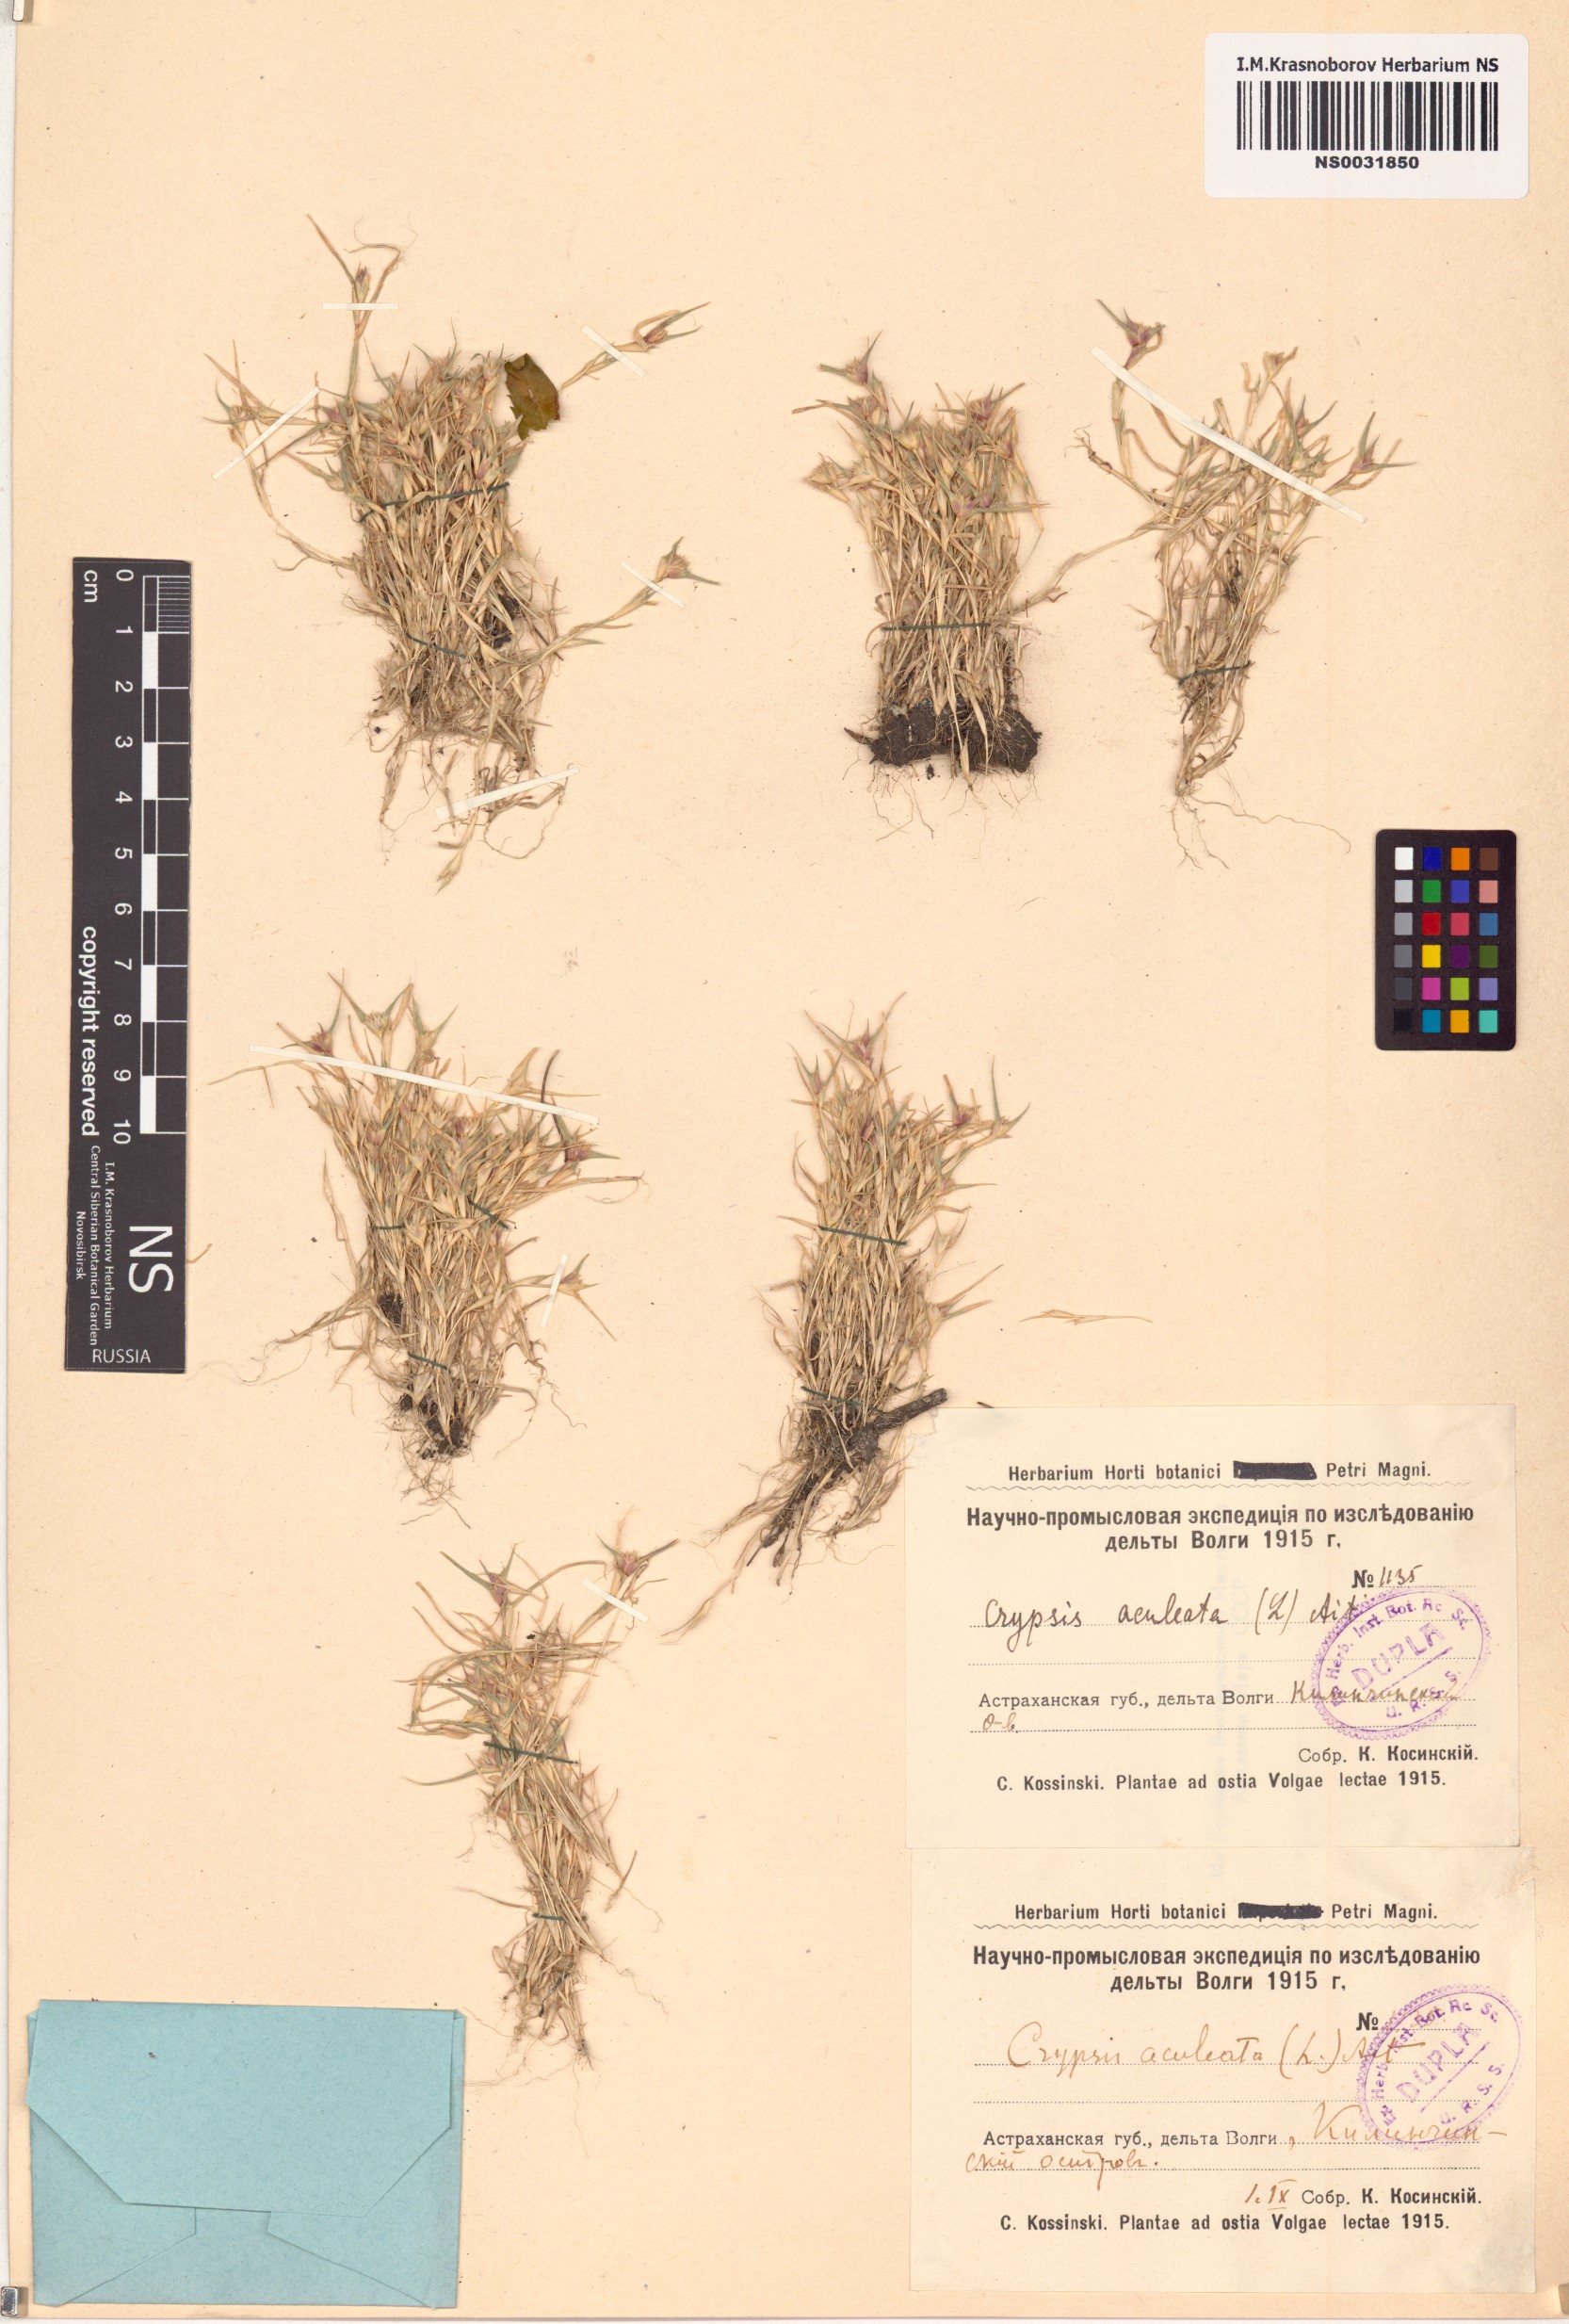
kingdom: Plantae
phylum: Tracheophyta
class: Liliopsida
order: Poales
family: Poaceae
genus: Sporobolus
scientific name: Sporobolus aculeatus
